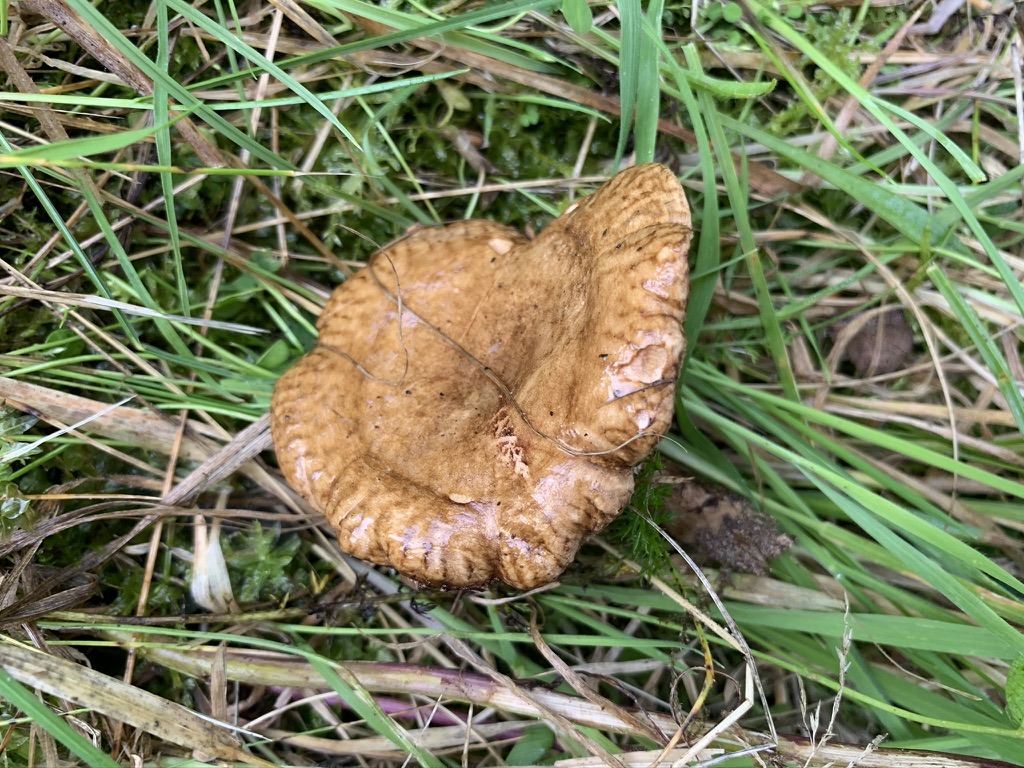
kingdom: Fungi
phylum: Basidiomycota
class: Agaricomycetes
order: Boletales
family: Paxillaceae
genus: Paxillus
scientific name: Paxillus rubicundulus
